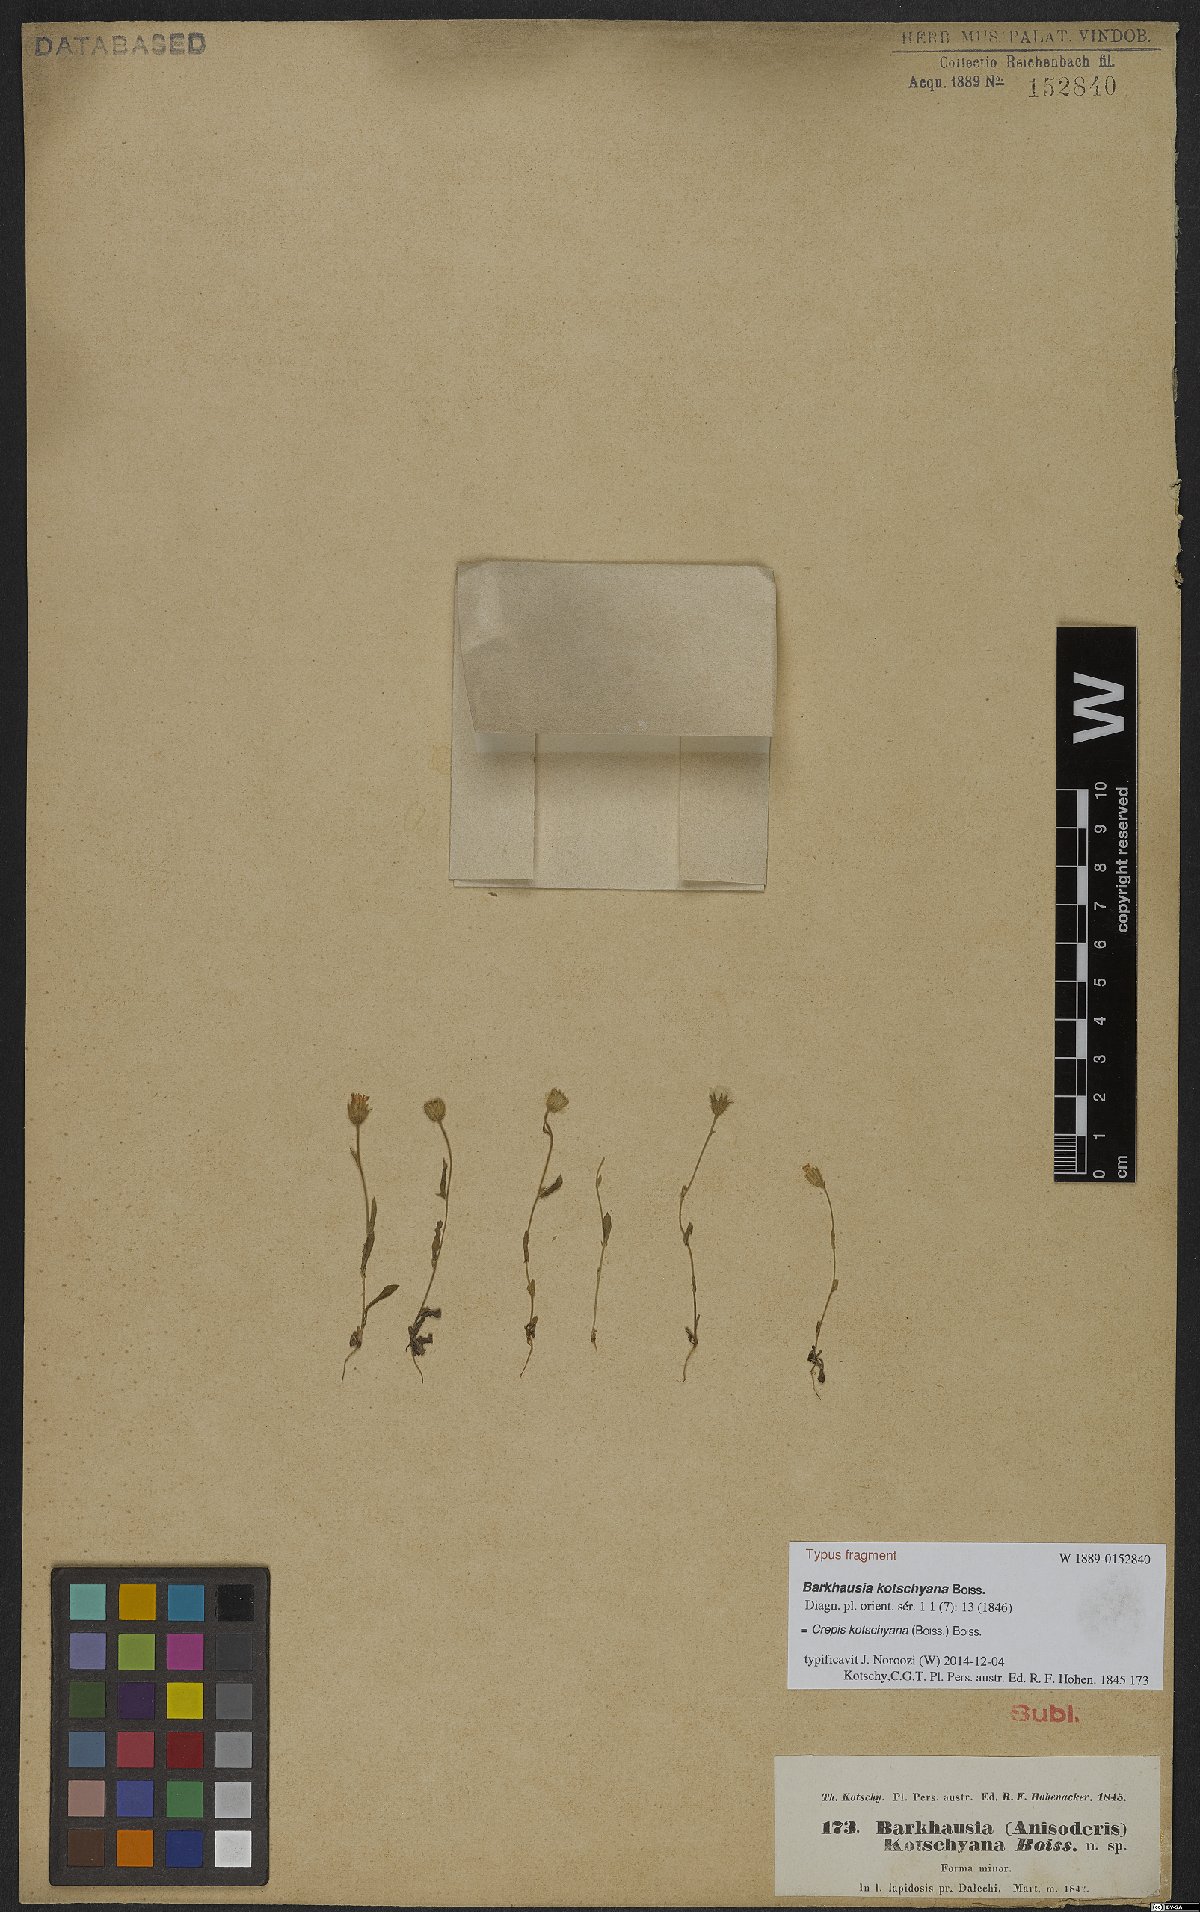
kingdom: Plantae
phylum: Tracheophyta
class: Magnoliopsida
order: Asterales
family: Asteraceae
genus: Crepis
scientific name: Crepis kotschyana
